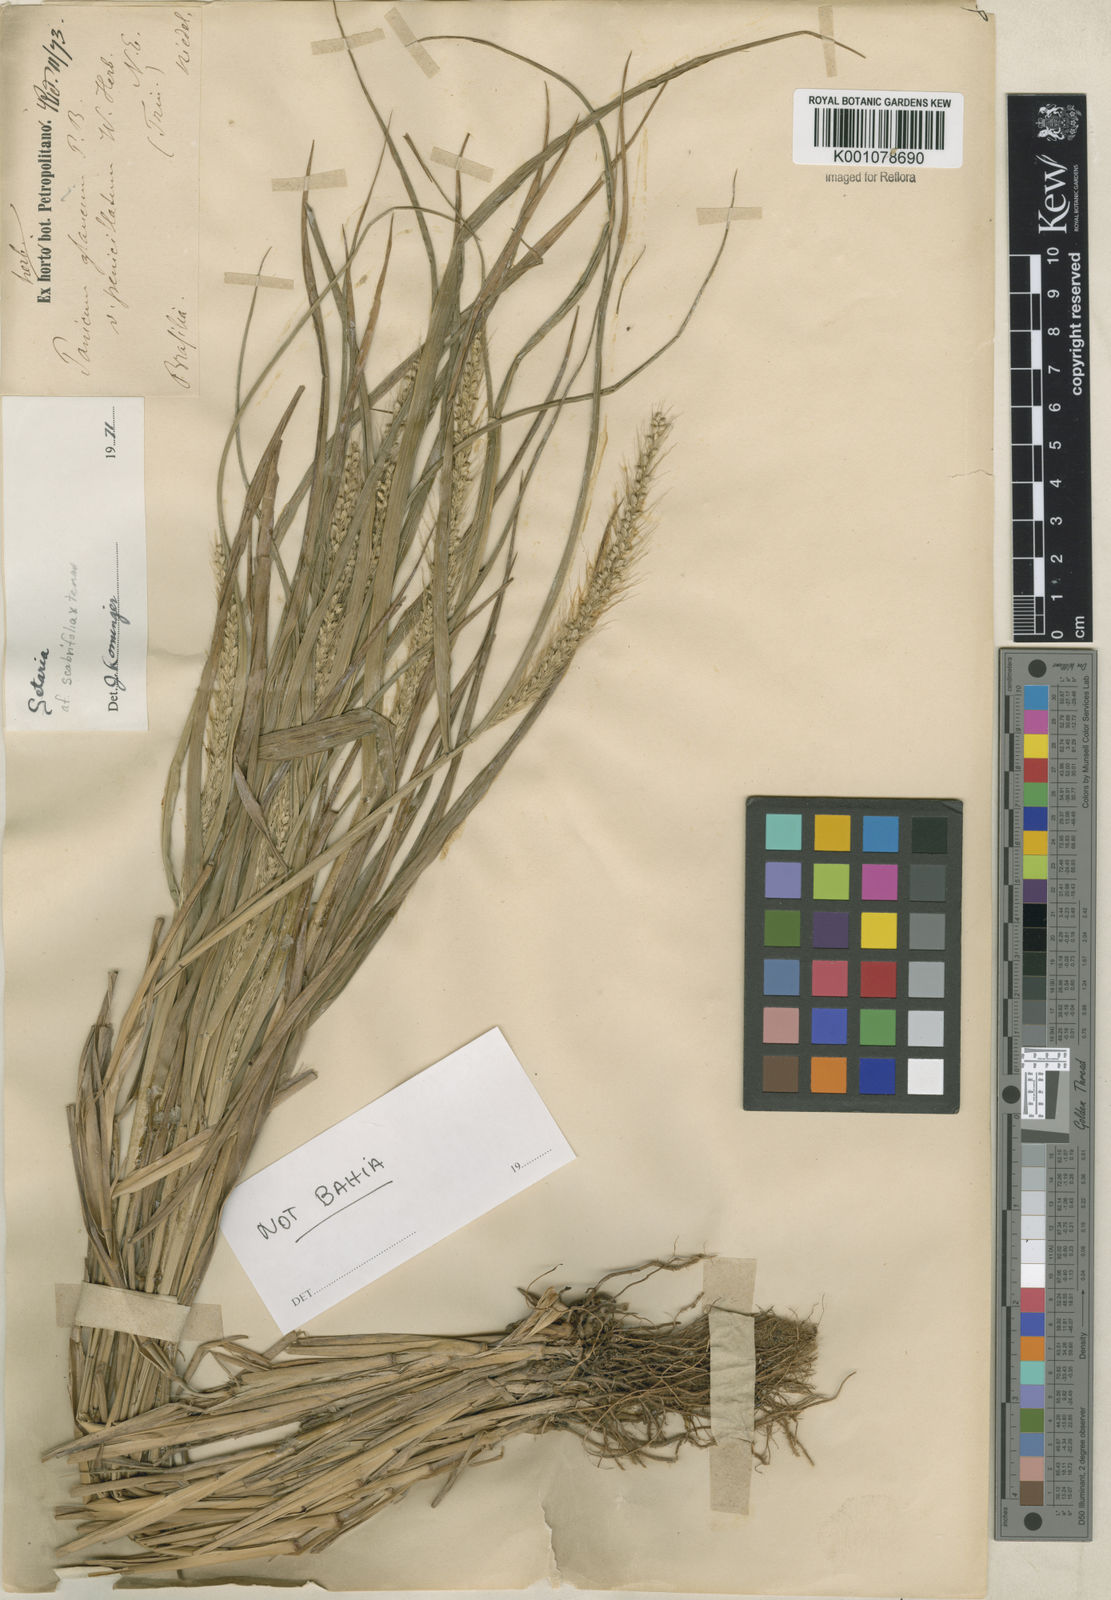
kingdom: Plantae
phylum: Tracheophyta
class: Liliopsida
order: Poales
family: Poaceae
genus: Setaria
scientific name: Setaria
